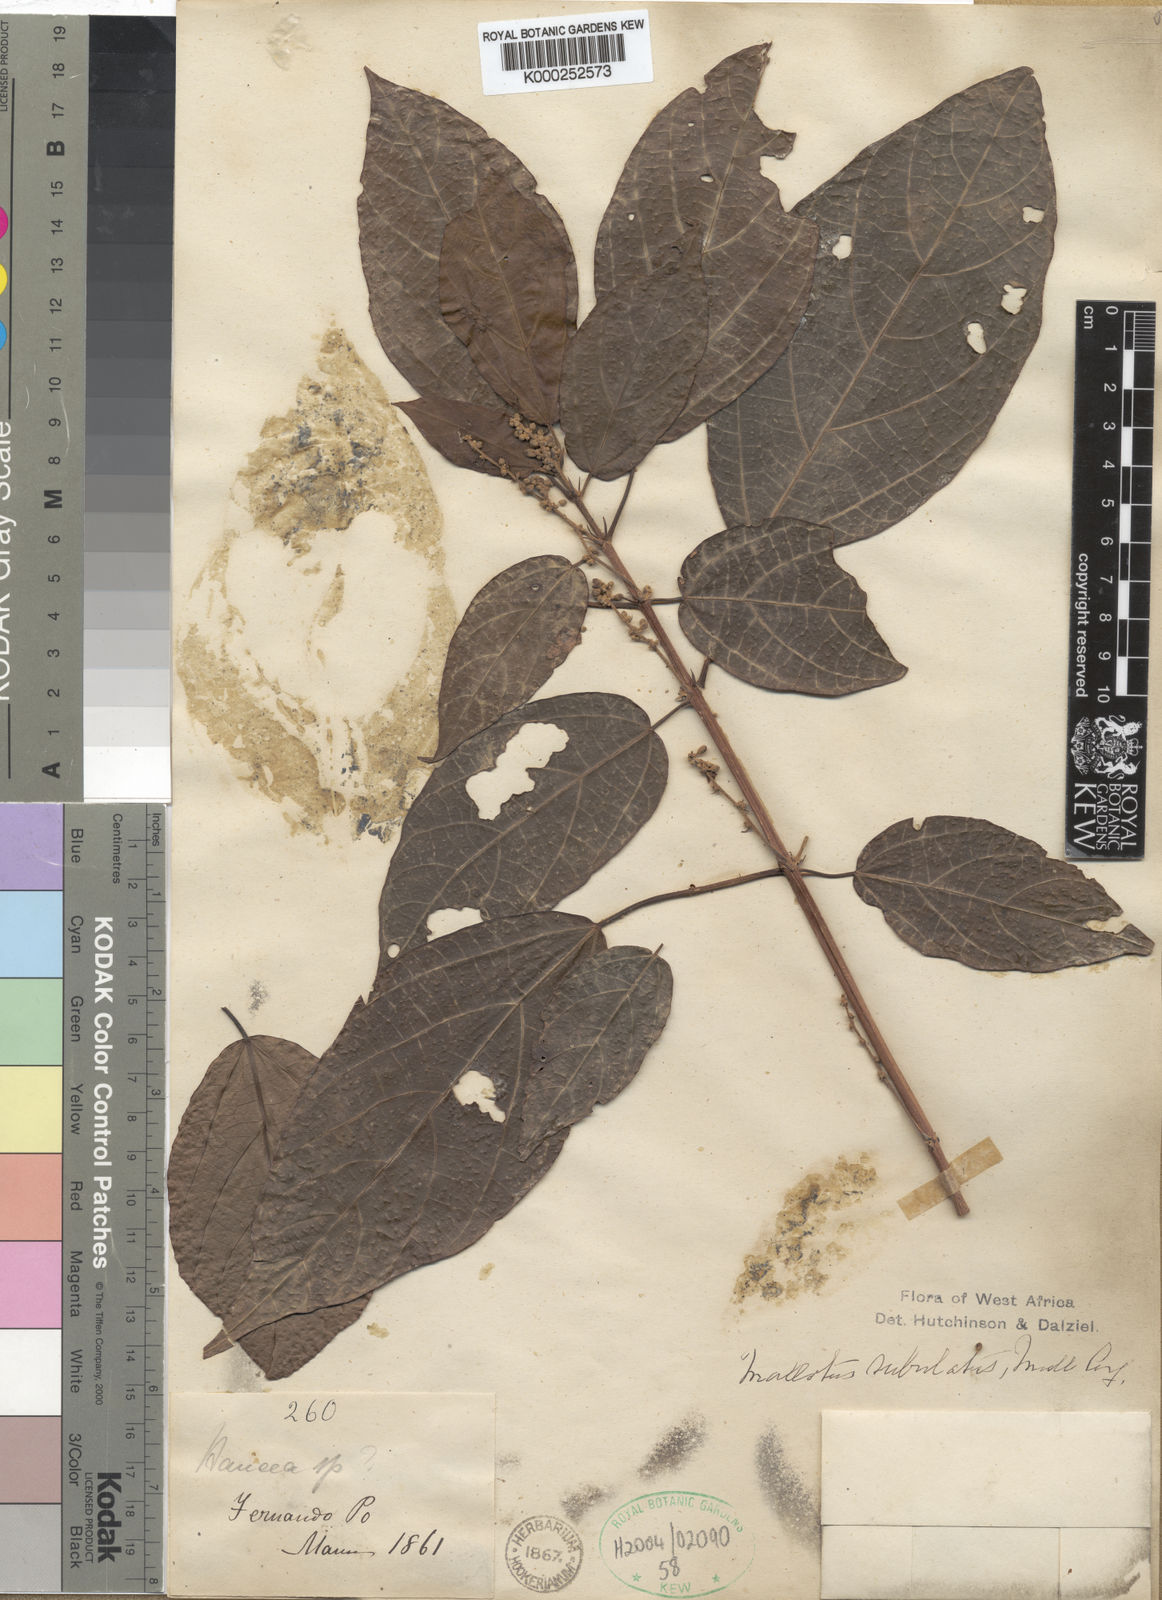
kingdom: Plantae
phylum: Tracheophyta
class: Magnoliopsida
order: Malpighiales
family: Euphorbiaceae
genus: Mallotus
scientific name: Mallotus subulatus
